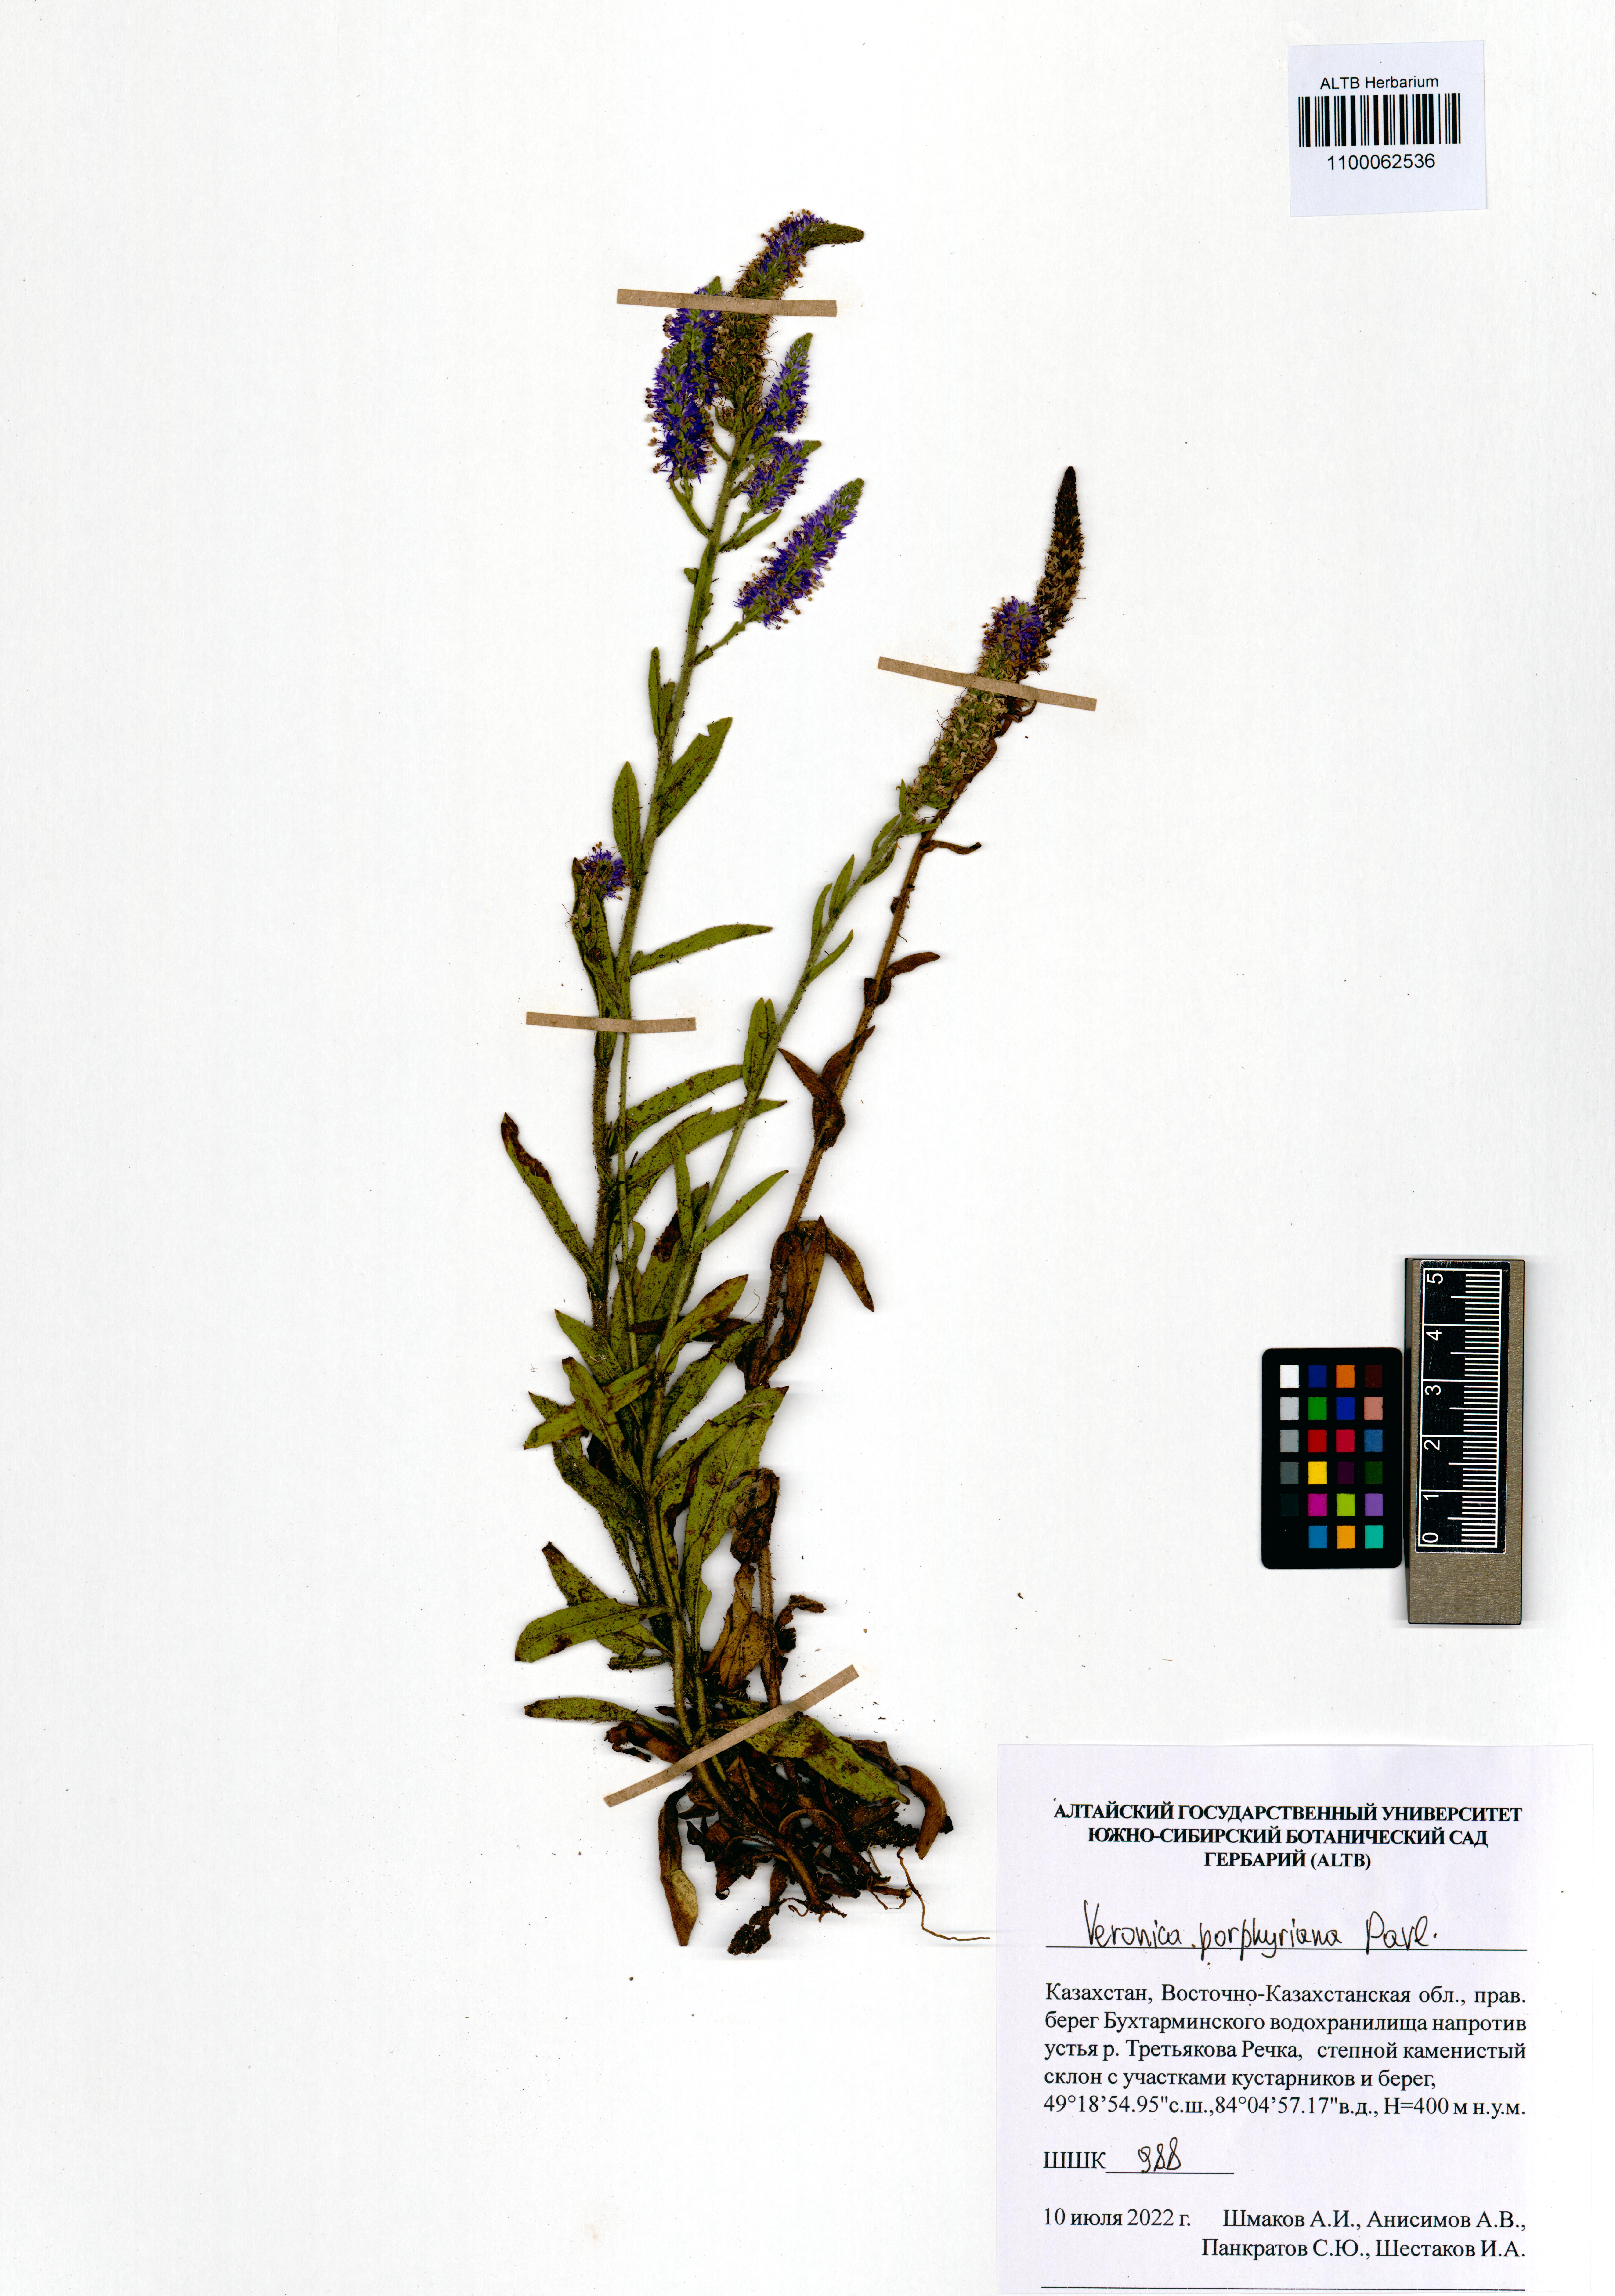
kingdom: Plantae
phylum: Tracheophyta
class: Magnoliopsida
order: Lamiales
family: Plantaginaceae
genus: Veronica
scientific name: Veronica porphyriana
